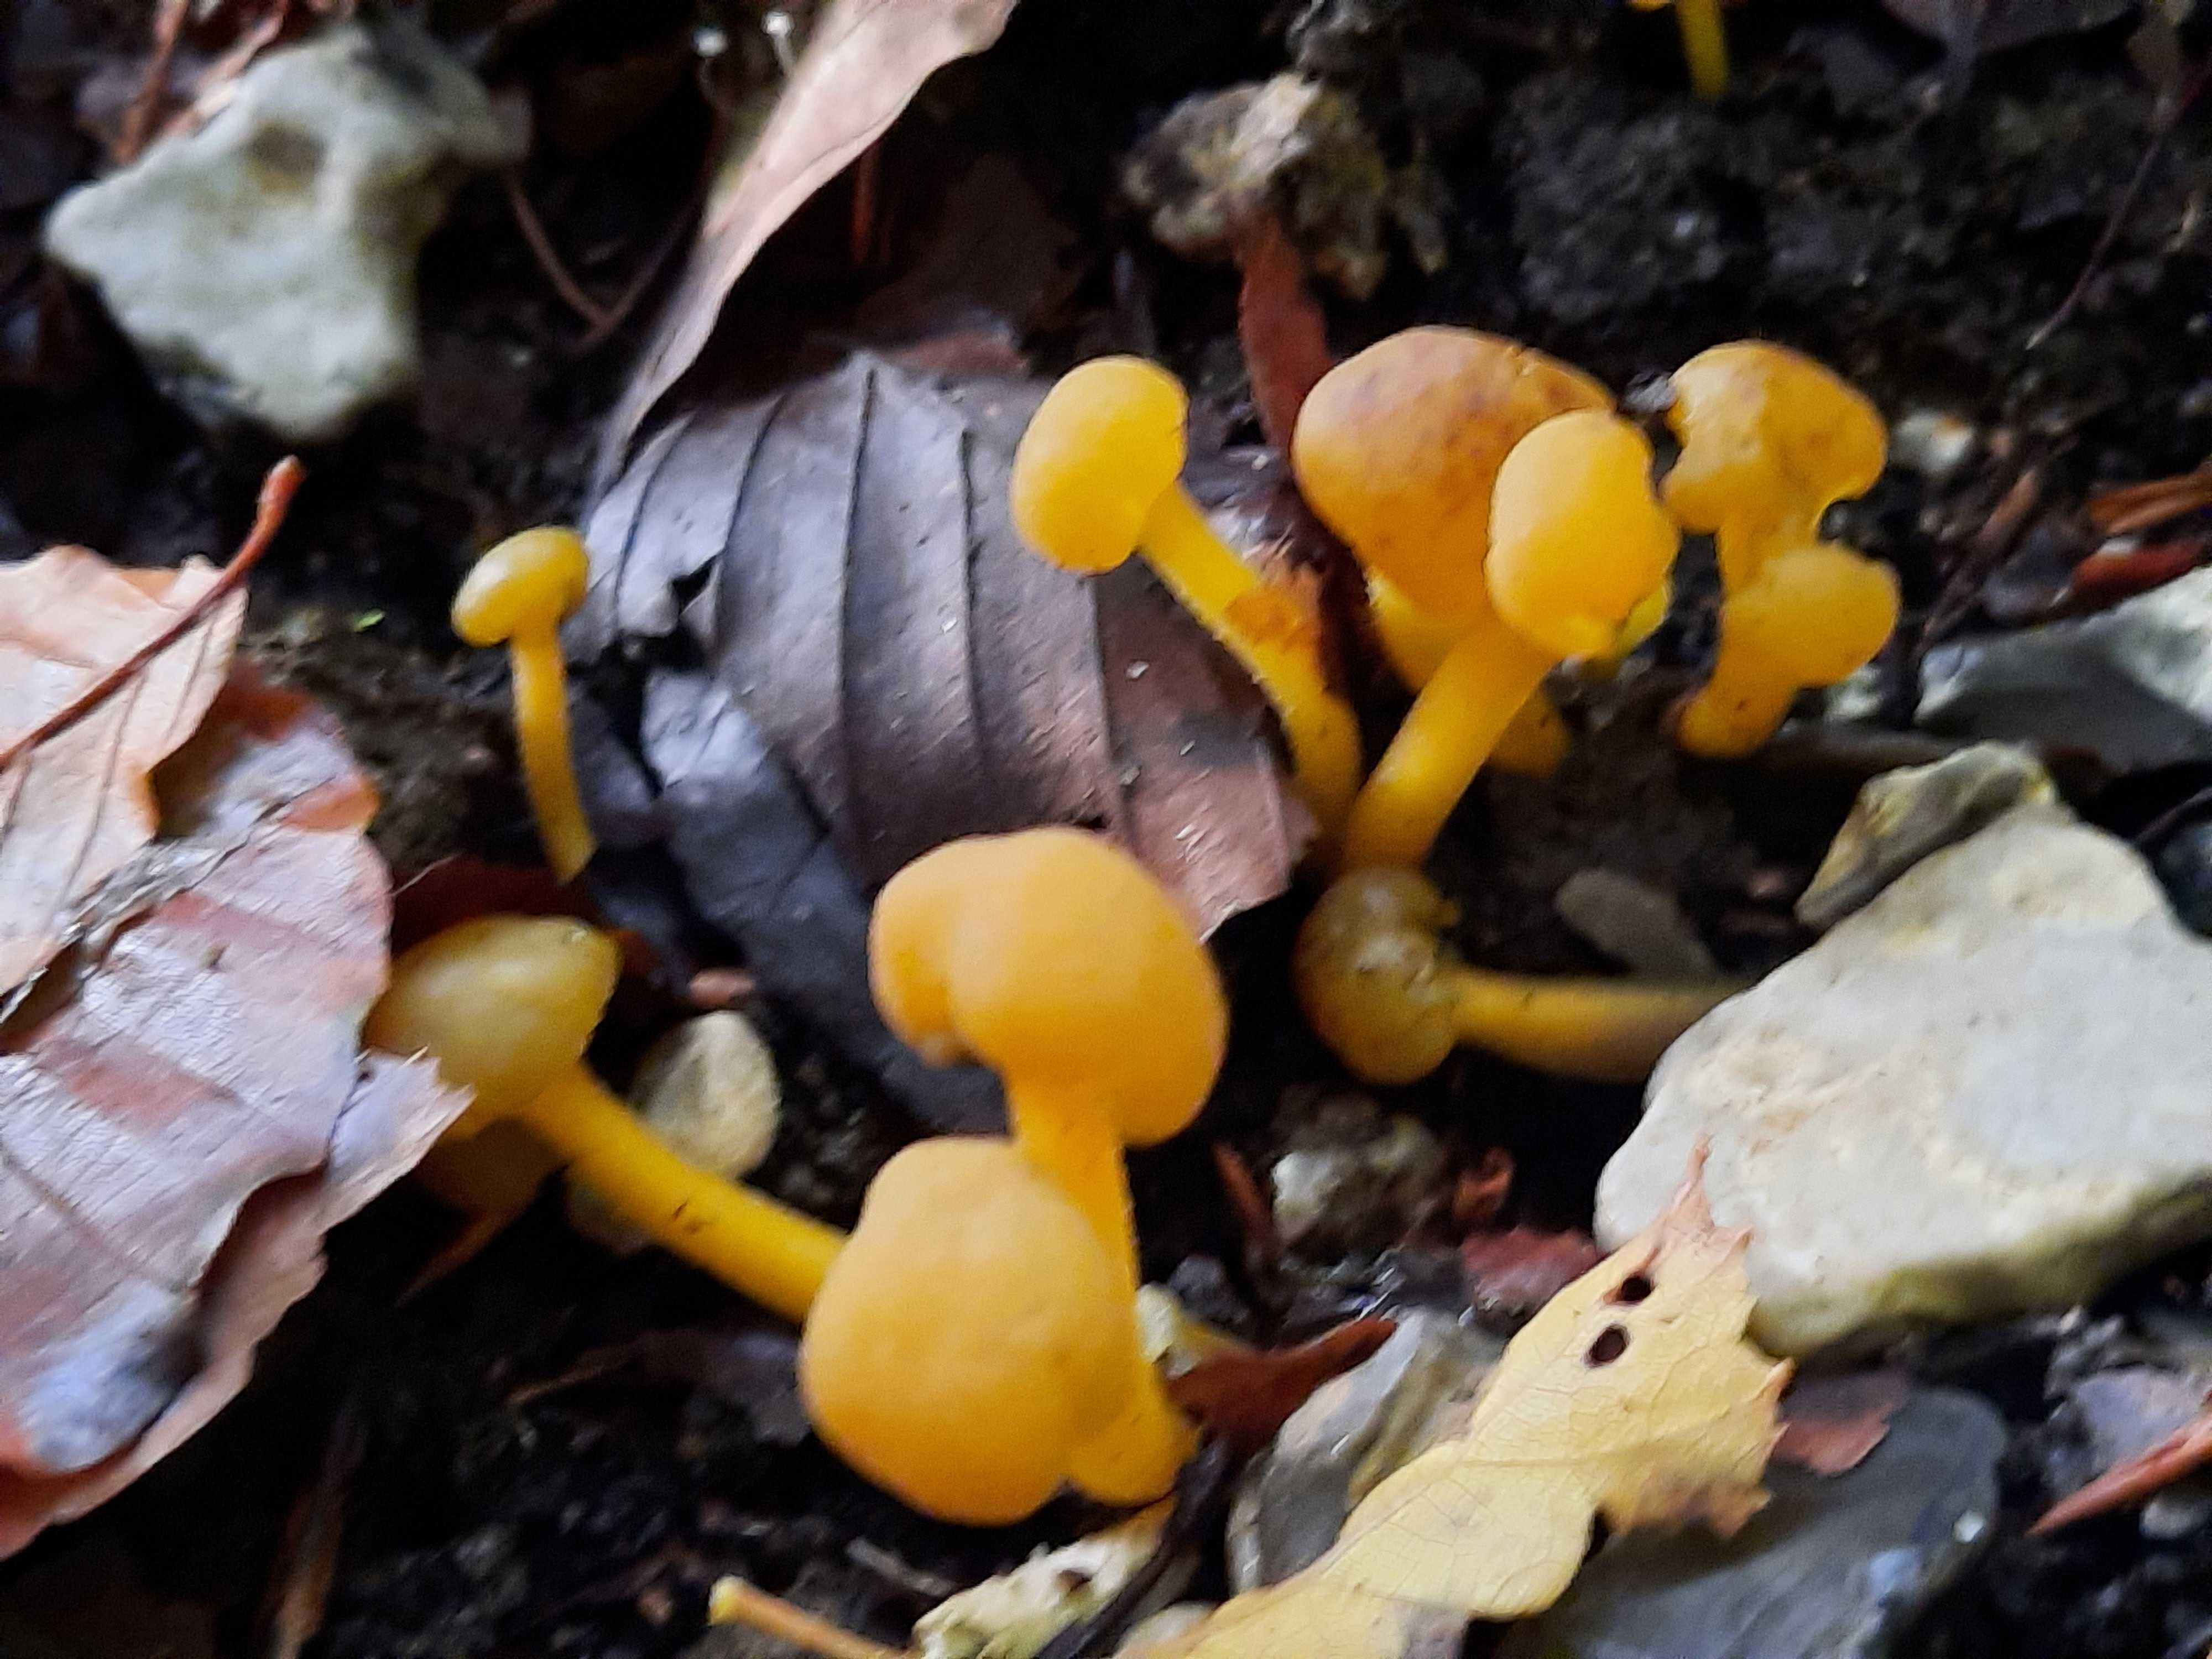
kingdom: Fungi
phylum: Ascomycota
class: Leotiomycetes
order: Leotiales
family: Leotiaceae
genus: Leotia
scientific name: Leotia lubrica
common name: ravsvamp
